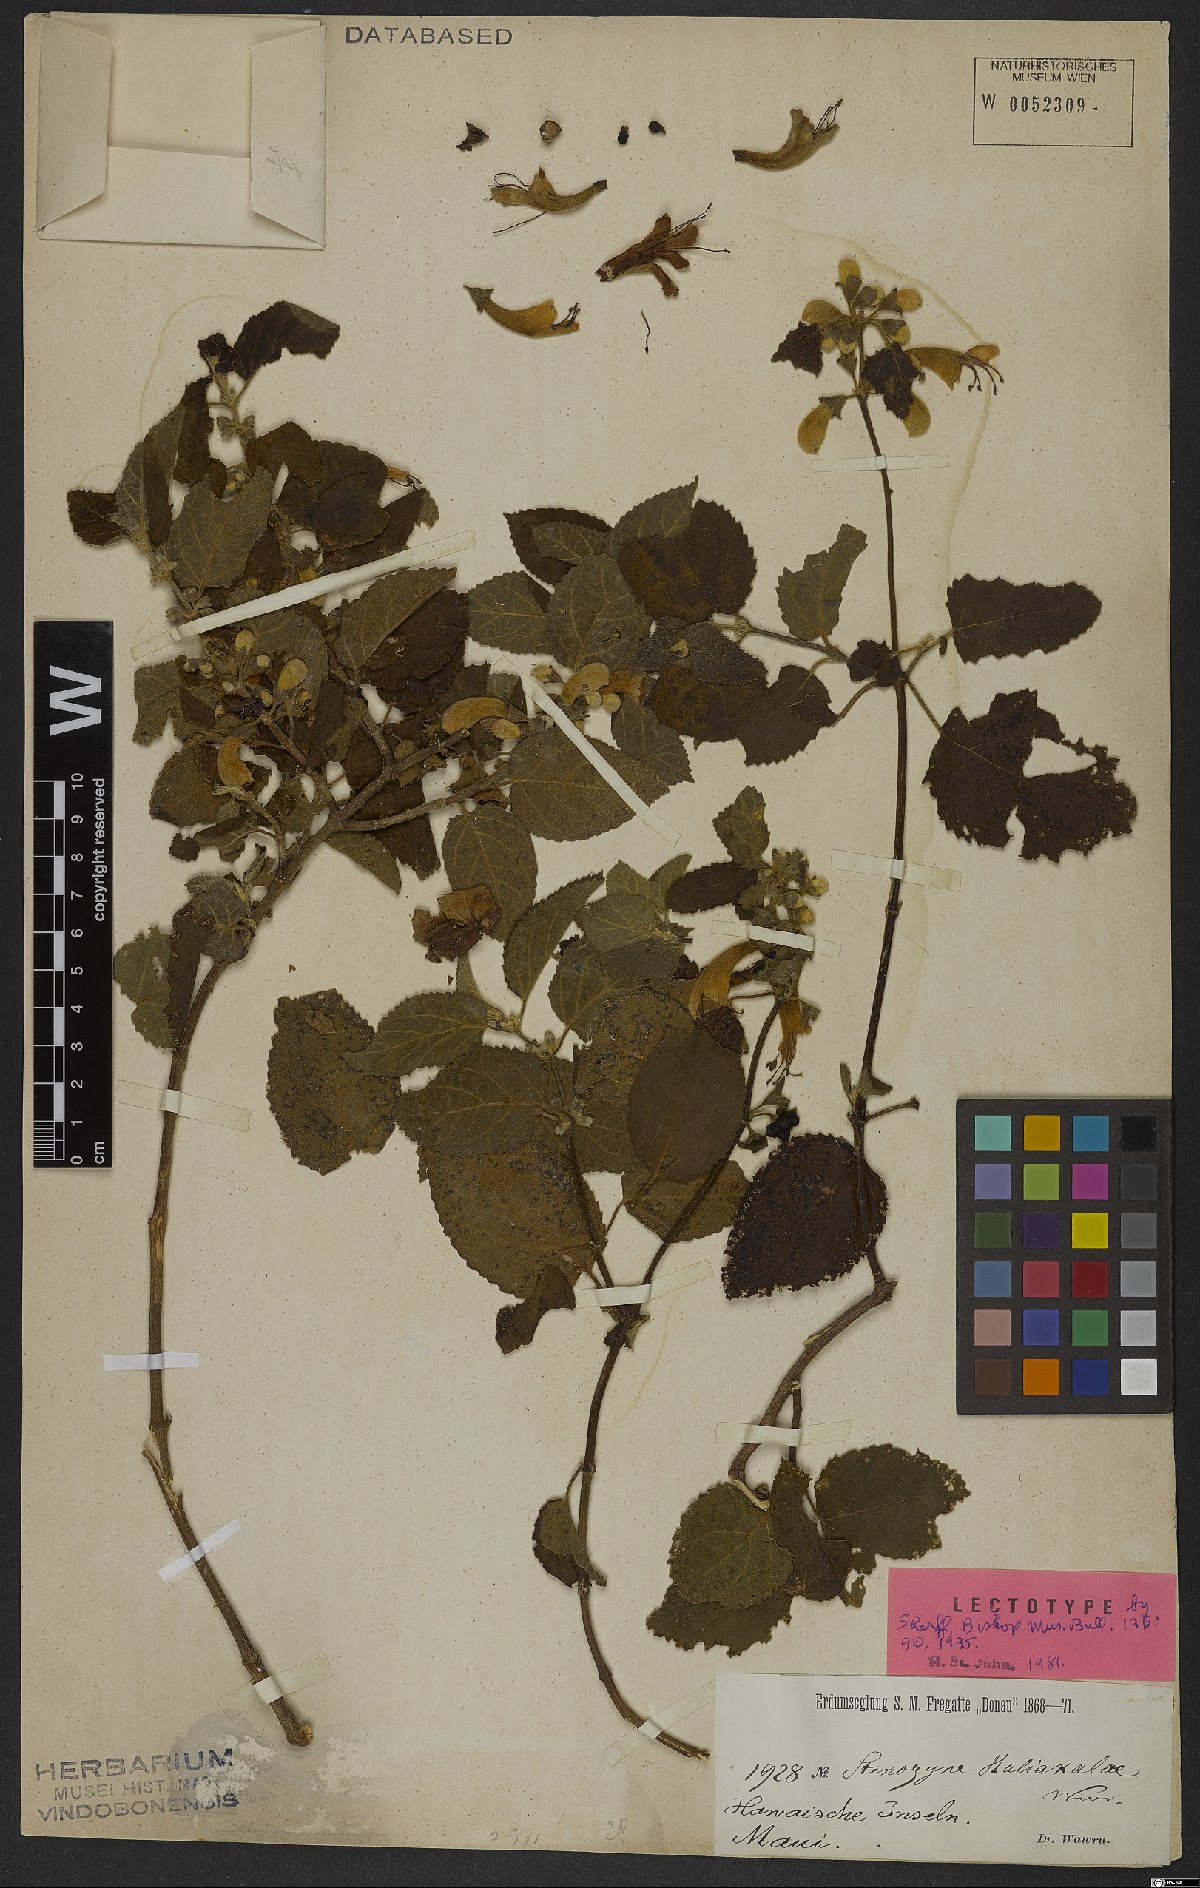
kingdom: Plantae
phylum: Tracheophyta
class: Magnoliopsida
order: Lamiales
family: Lamiaceae
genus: Stenogyne
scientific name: Stenogyne haliakalae
